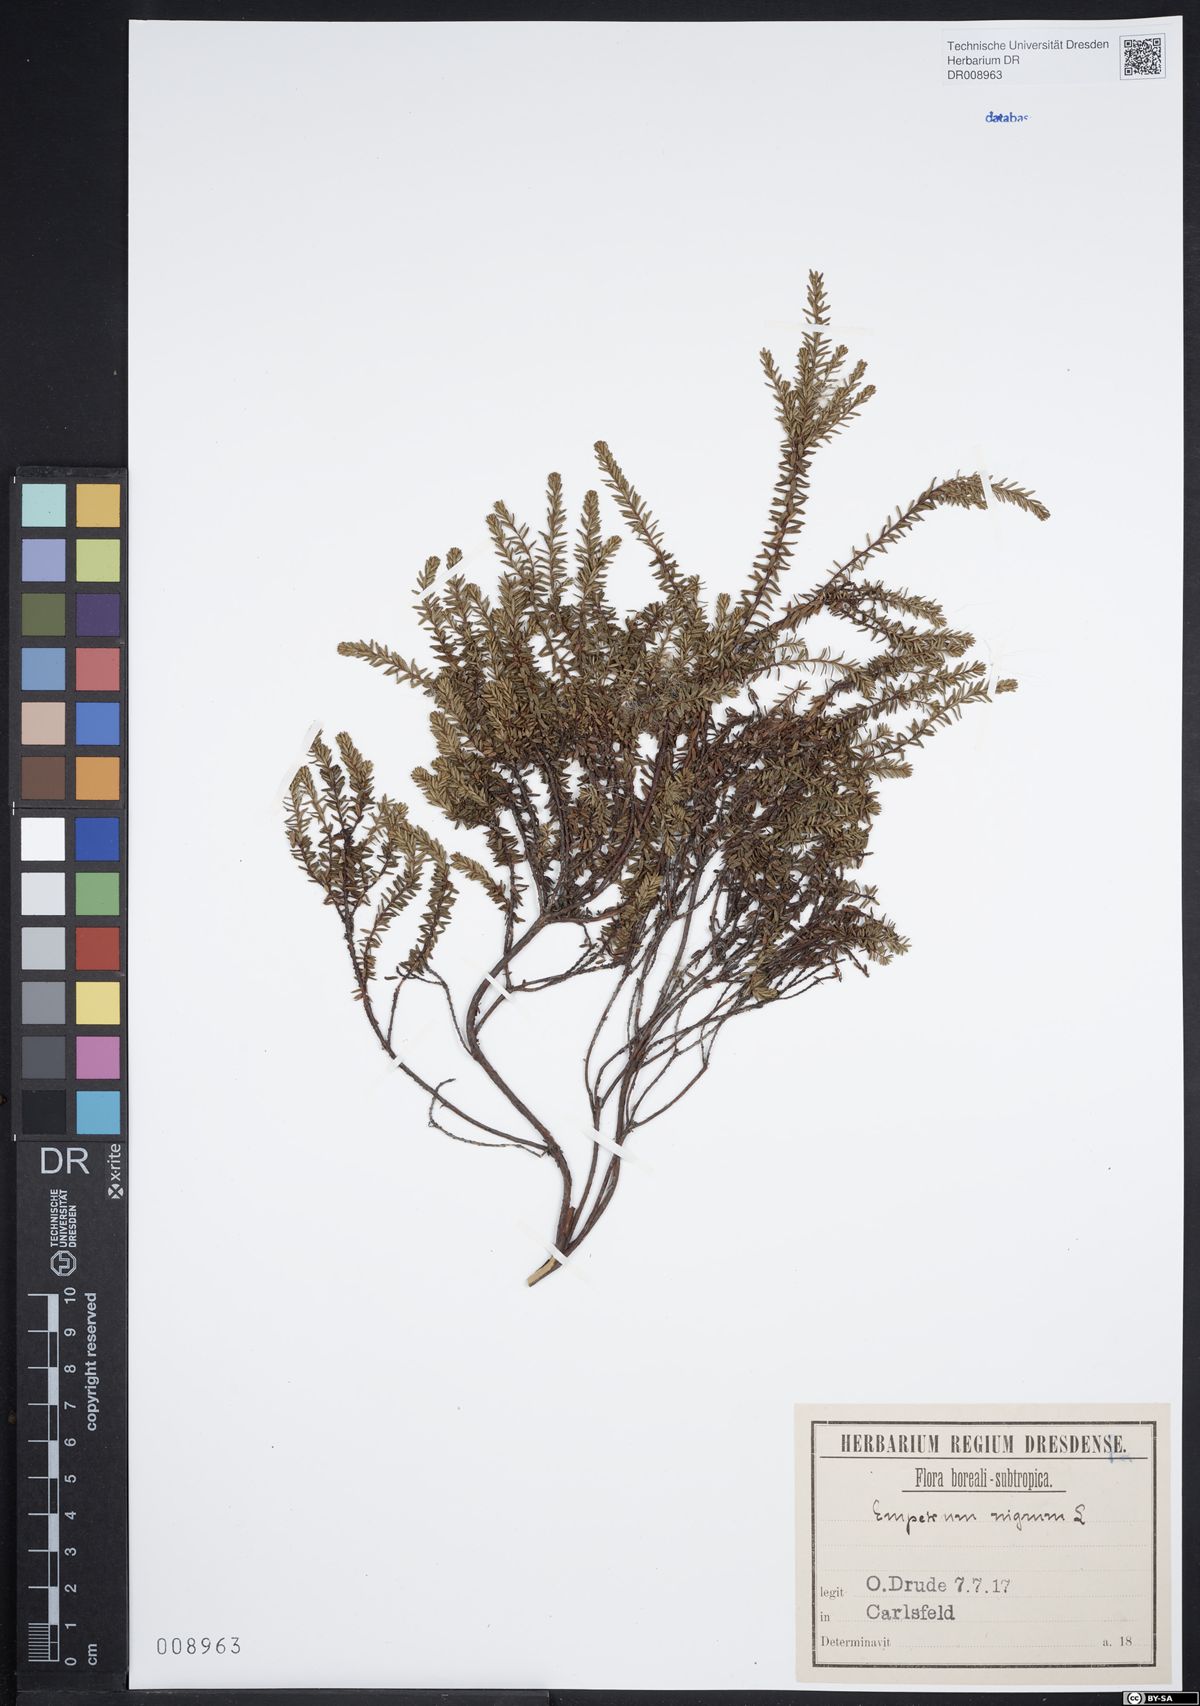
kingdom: Plantae
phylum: Tracheophyta
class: Magnoliopsida
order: Ericales
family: Ericaceae
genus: Empetrum
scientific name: Empetrum nigrum
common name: Black crowberry
